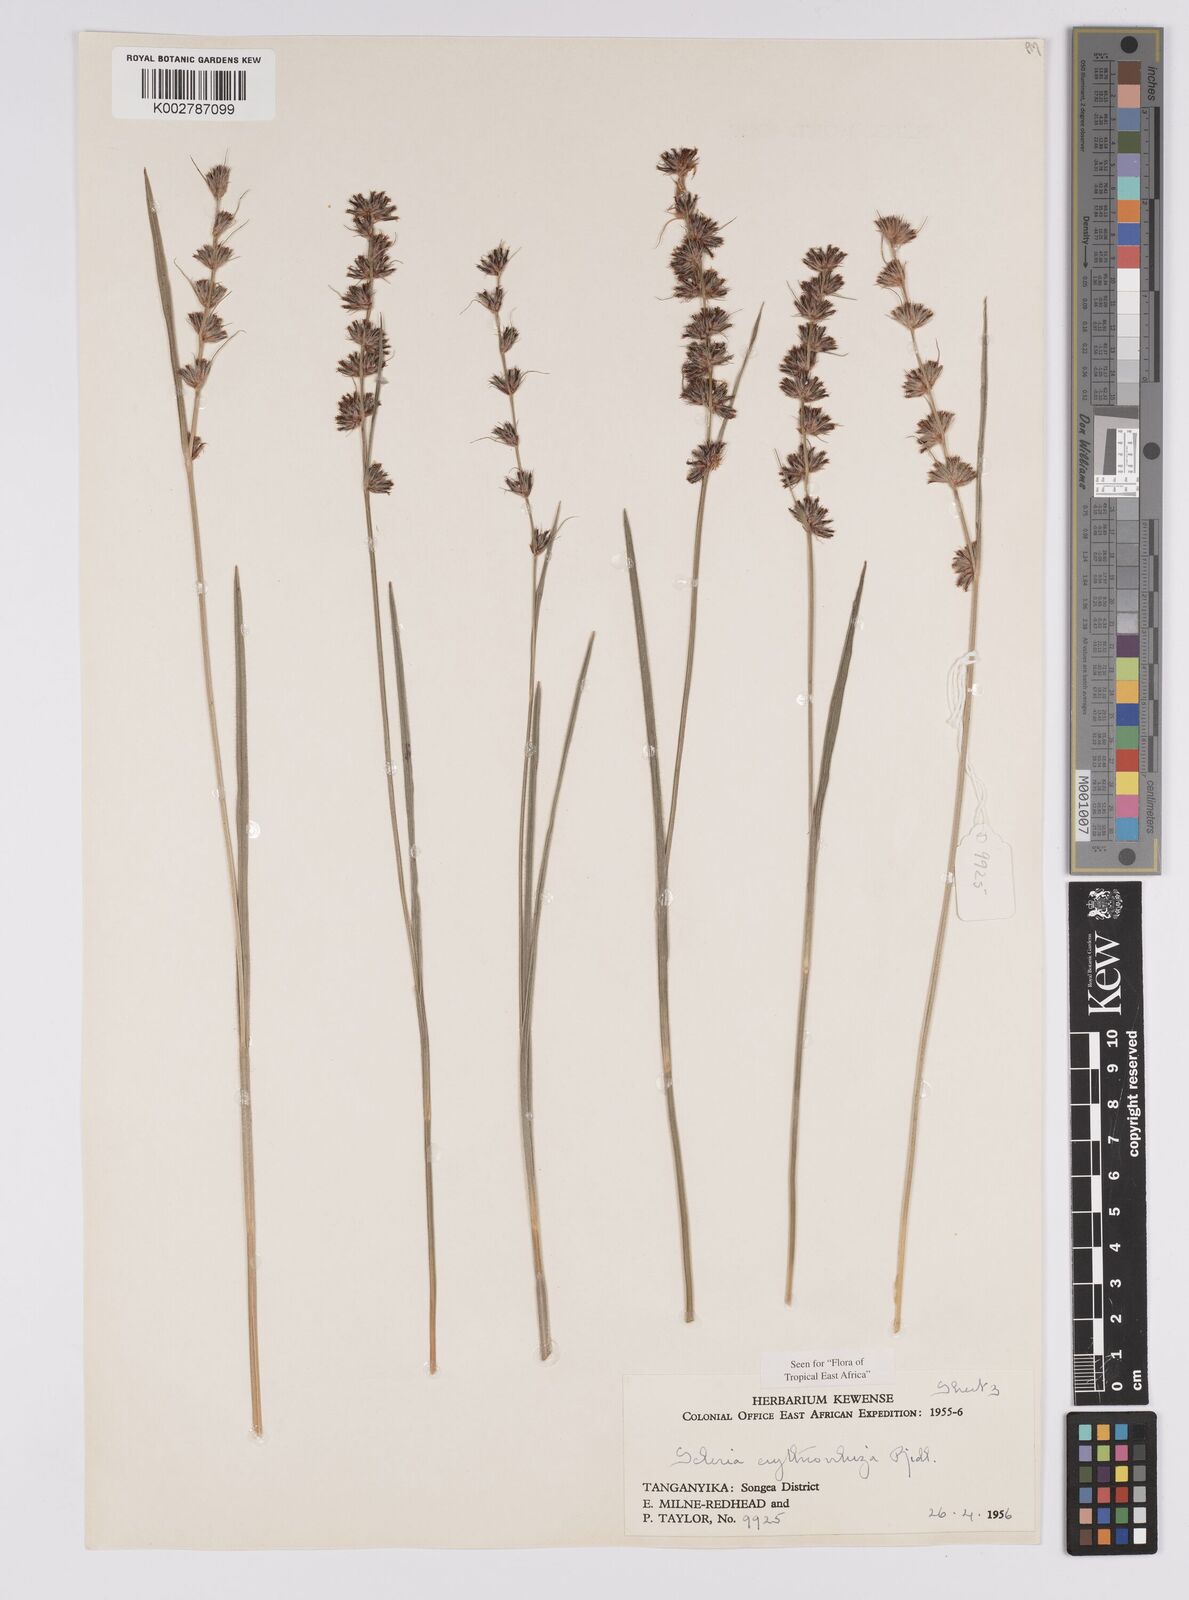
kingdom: Plantae
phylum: Tracheophyta
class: Liliopsida
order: Poales
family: Cyperaceae
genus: Scleria
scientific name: Scleria erythrorrhiza
